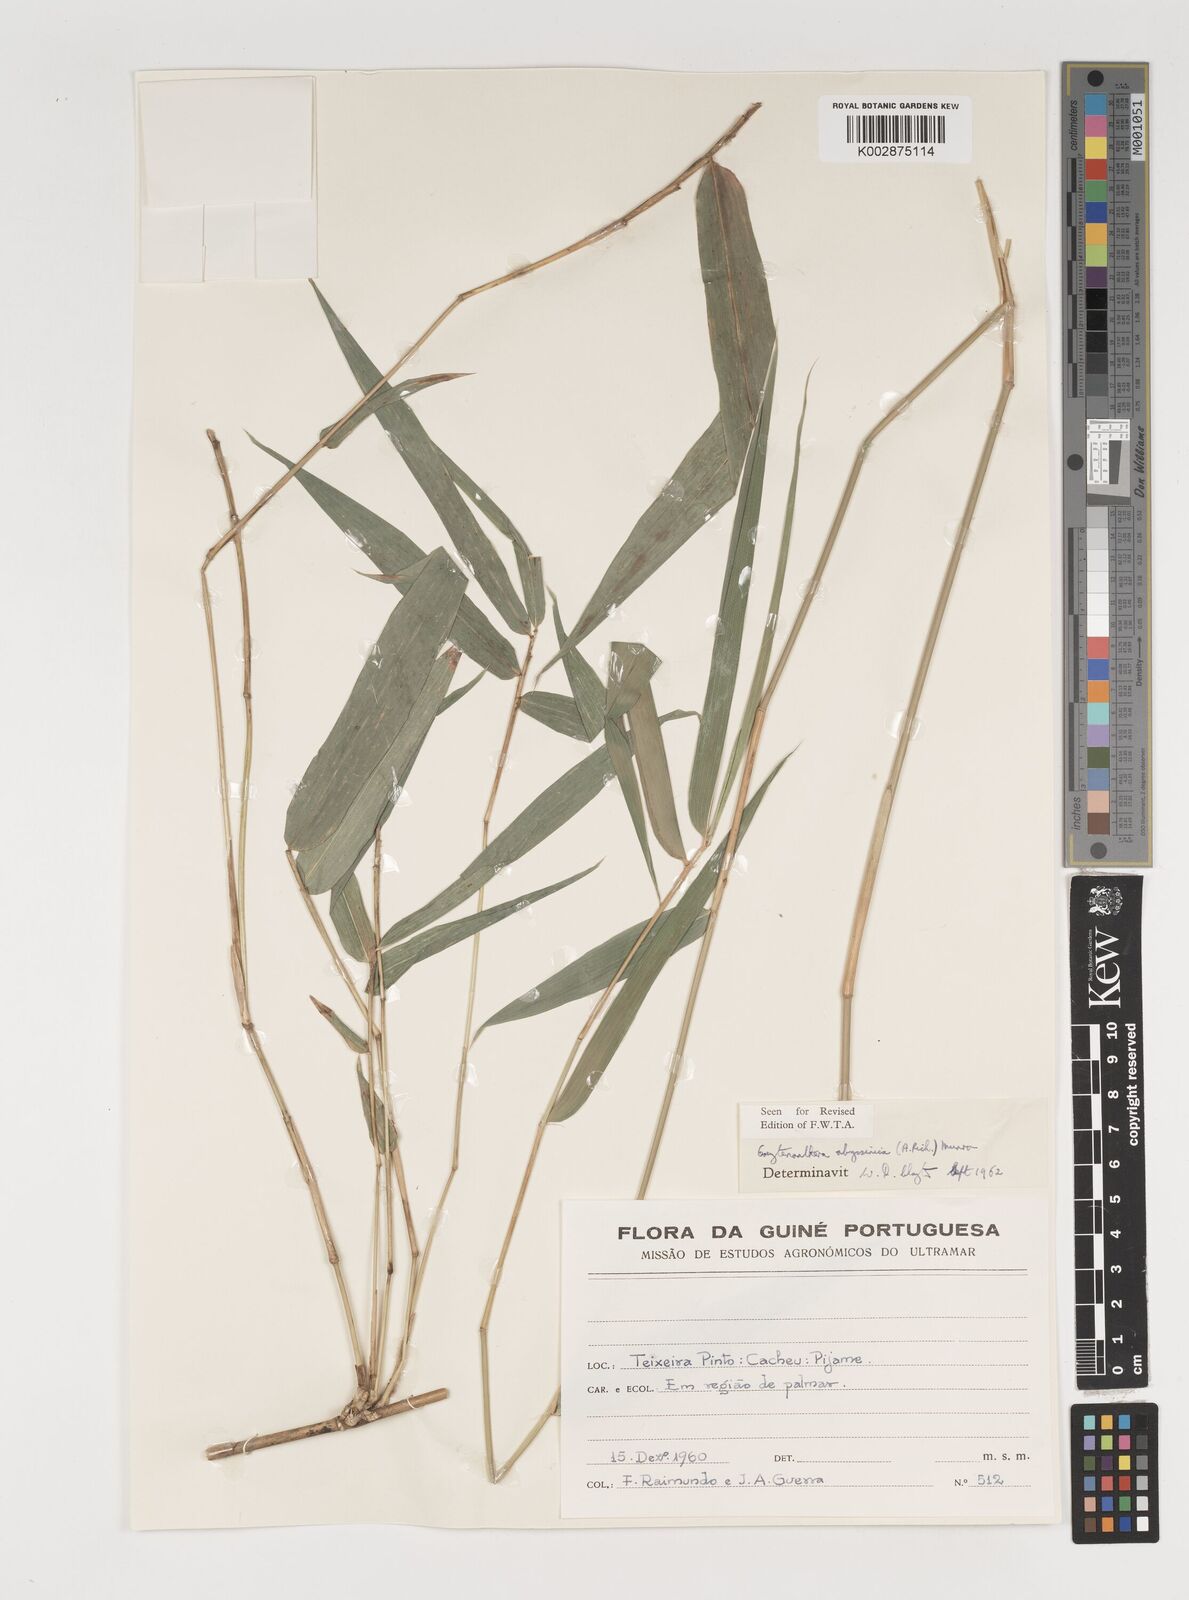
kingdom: Plantae
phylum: Tracheophyta
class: Liliopsida
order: Poales
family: Poaceae
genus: Oxytenanthera
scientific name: Oxytenanthera abyssinica
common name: Wine bamboo
